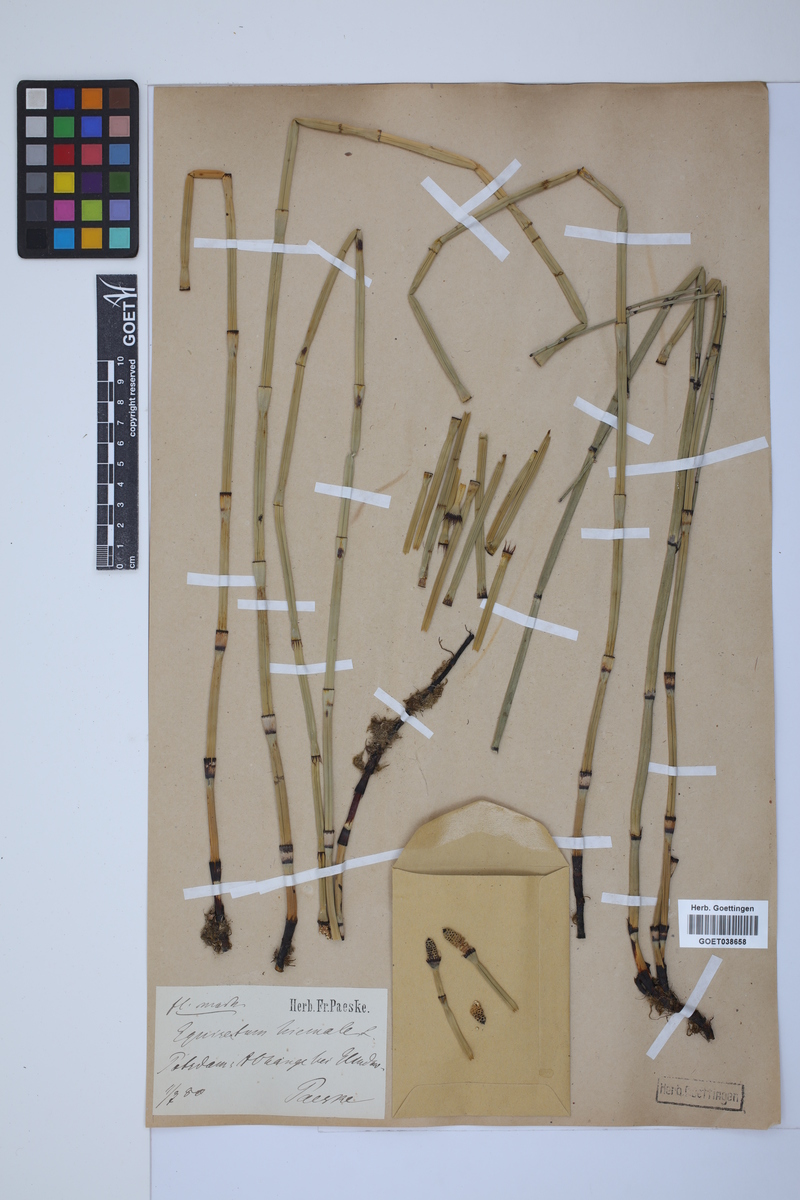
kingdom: Plantae
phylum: Tracheophyta
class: Polypodiopsida
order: Equisetales
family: Equisetaceae
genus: Equisetum
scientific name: Equisetum hyemale
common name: Rough horsetail
